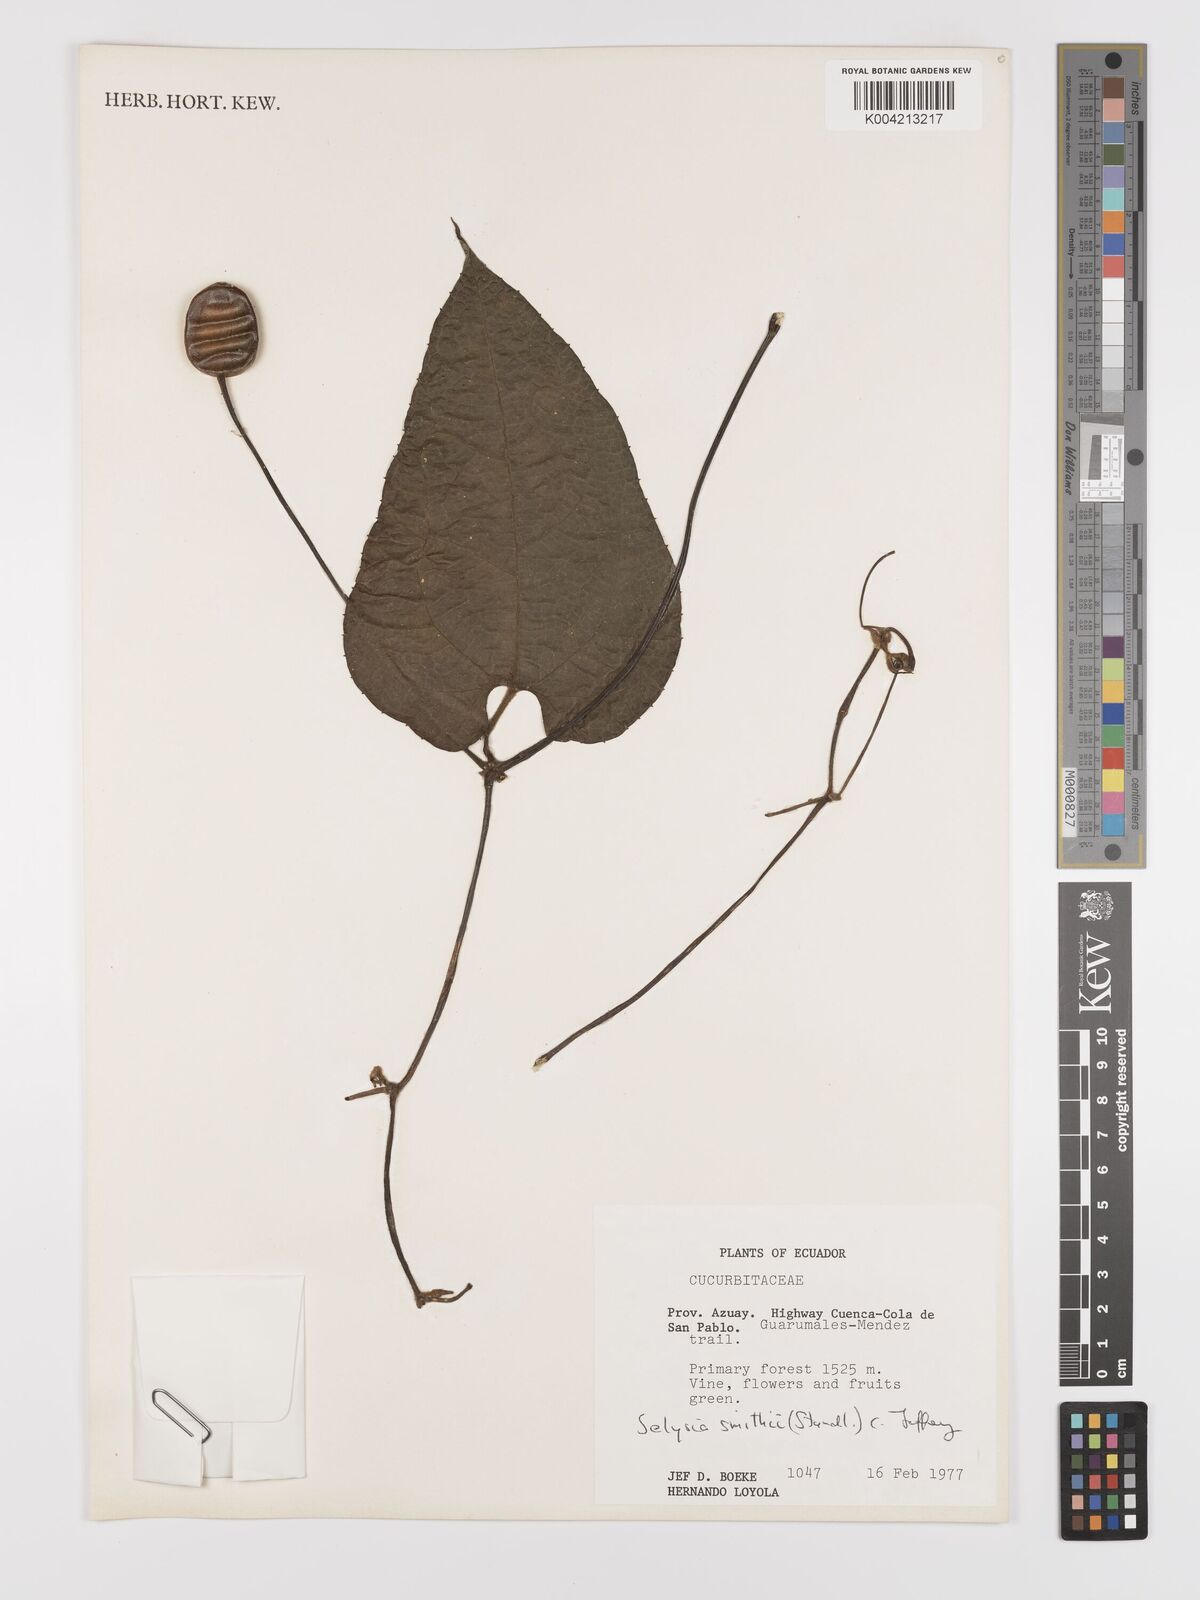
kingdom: Plantae
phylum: Tracheophyta
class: Magnoliopsida
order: Cucurbitales
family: Cucurbitaceae
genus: Cayaponia
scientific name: Cayaponia smithii
